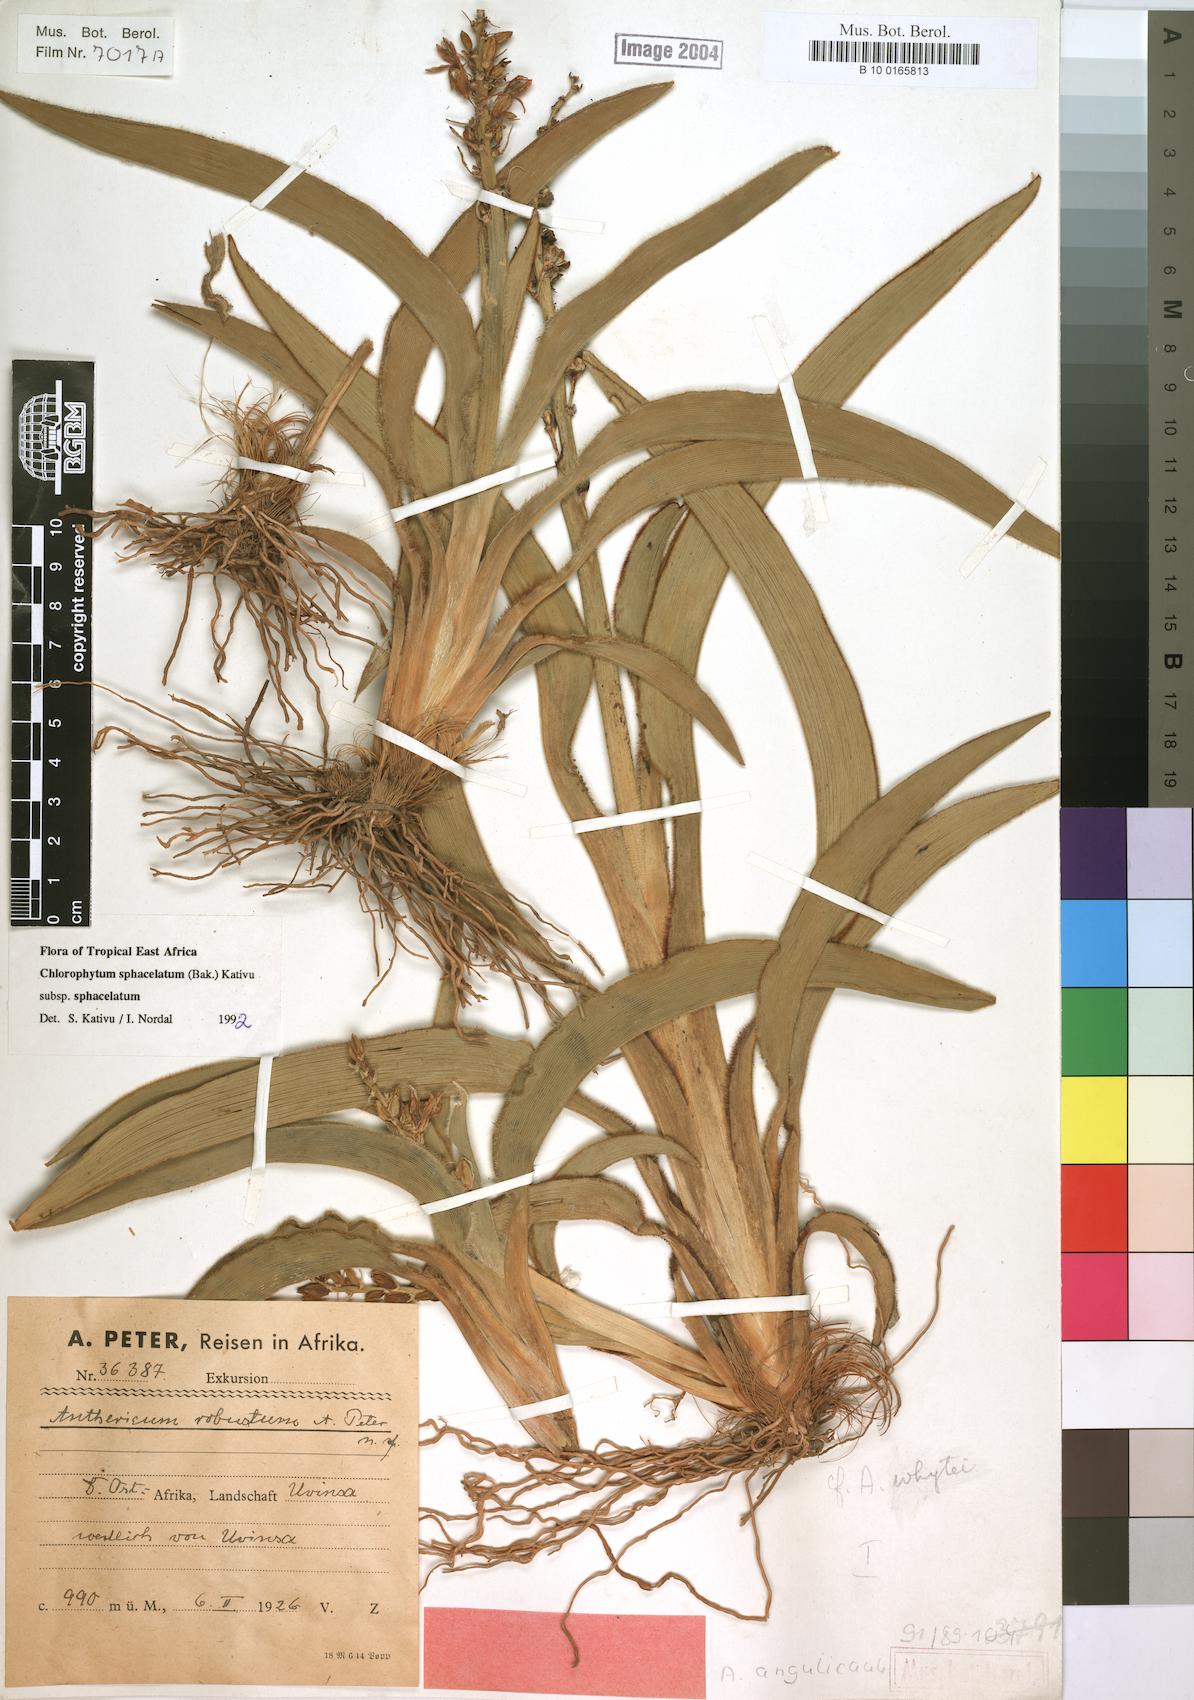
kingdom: Plantae
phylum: Tracheophyta
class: Liliopsida
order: Asparagales
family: Asparagaceae
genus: Chlorophytum
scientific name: Chlorophytum sphacelatum
